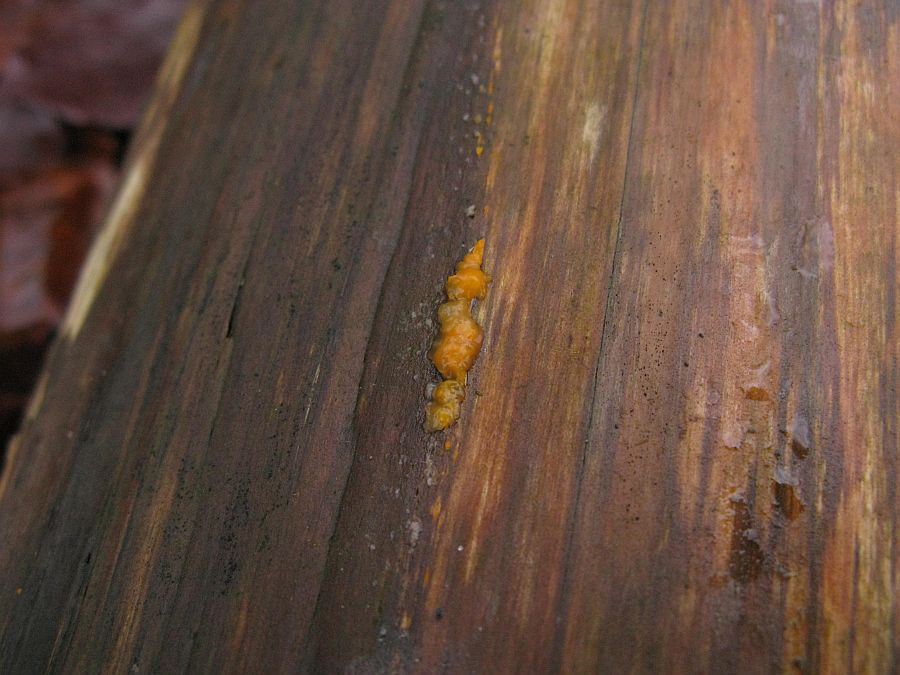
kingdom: Fungi
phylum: Basidiomycota
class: Dacrymycetes
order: Dacrymycetales
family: Dacrymycetaceae
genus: Dacrymyces
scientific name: Dacrymyces stillatus
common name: almindelig tåresvamp
